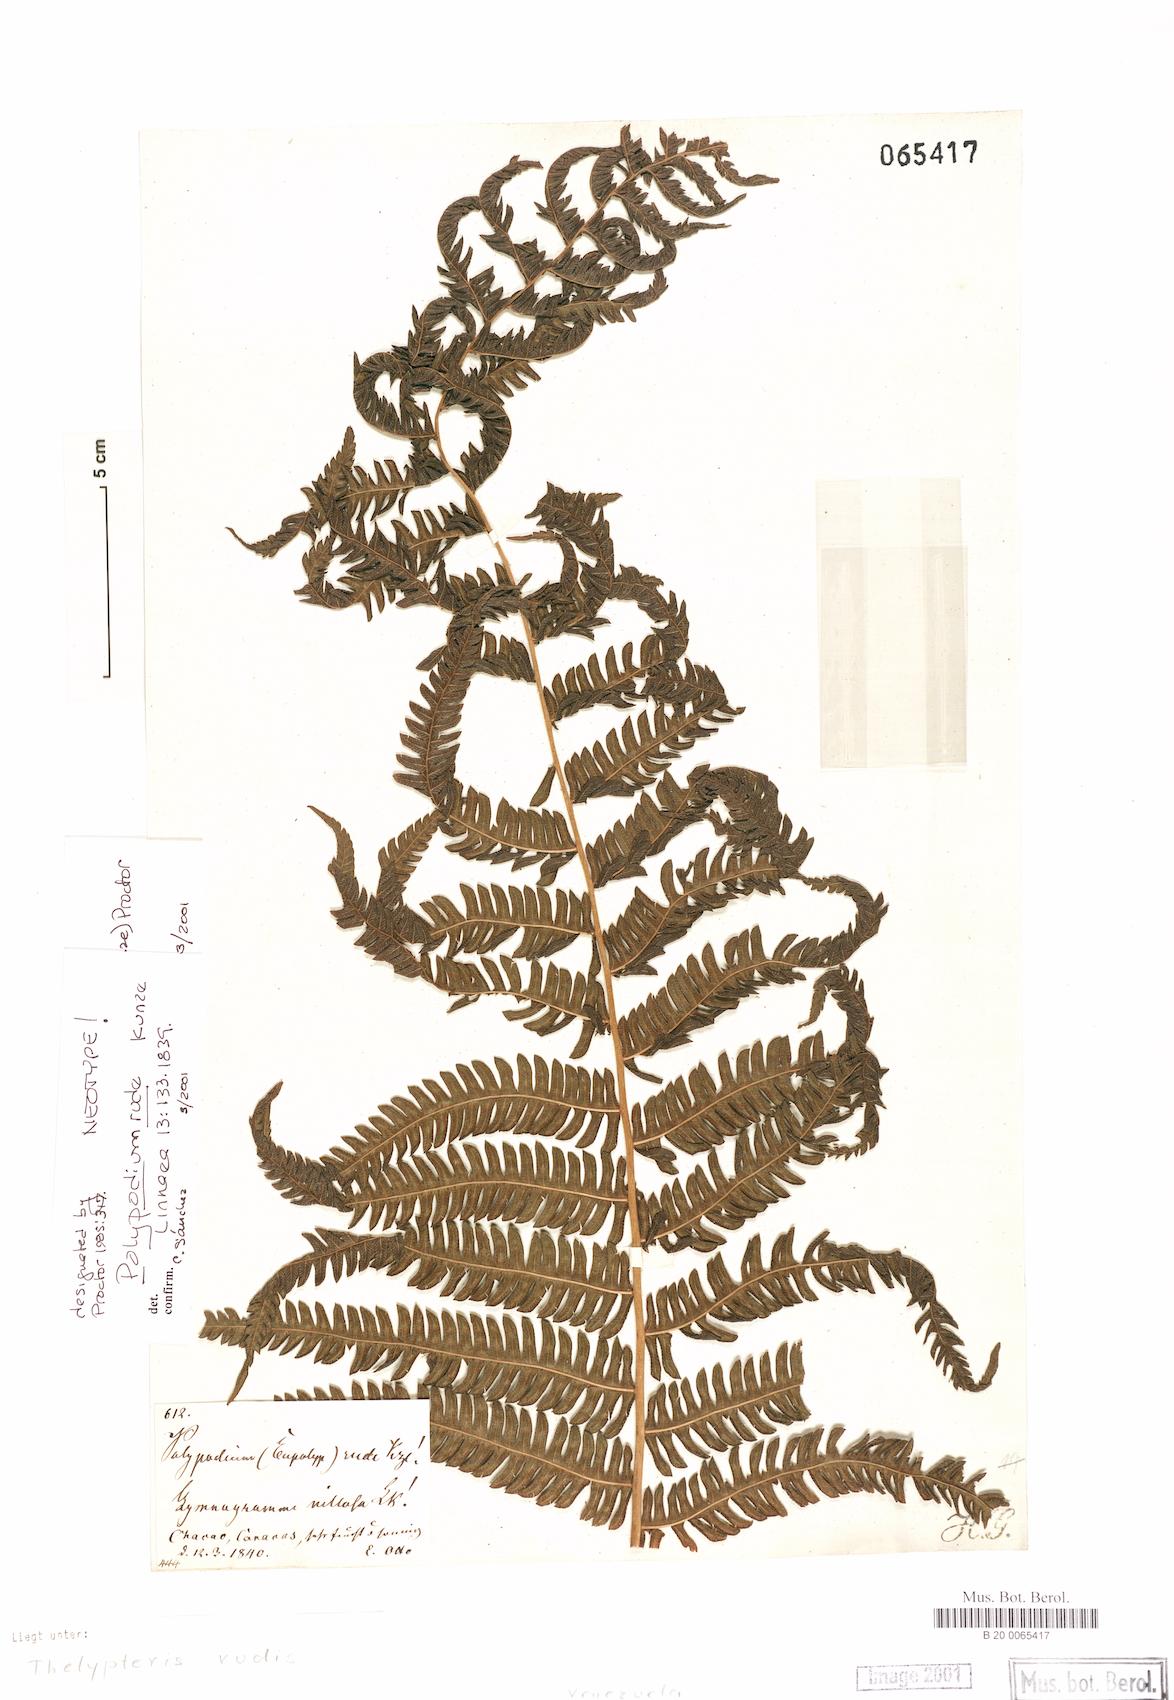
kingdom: Plantae
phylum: Tracheophyta
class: Polypodiopsida
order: Polypodiales
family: Thelypteridaceae
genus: Amauropelta
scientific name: Amauropelta rudis
